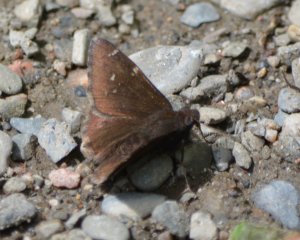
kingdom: Animalia
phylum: Arthropoda
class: Insecta
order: Lepidoptera
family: Hesperiidae
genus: Autochton
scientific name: Autochton
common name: Northern Cloudywing
